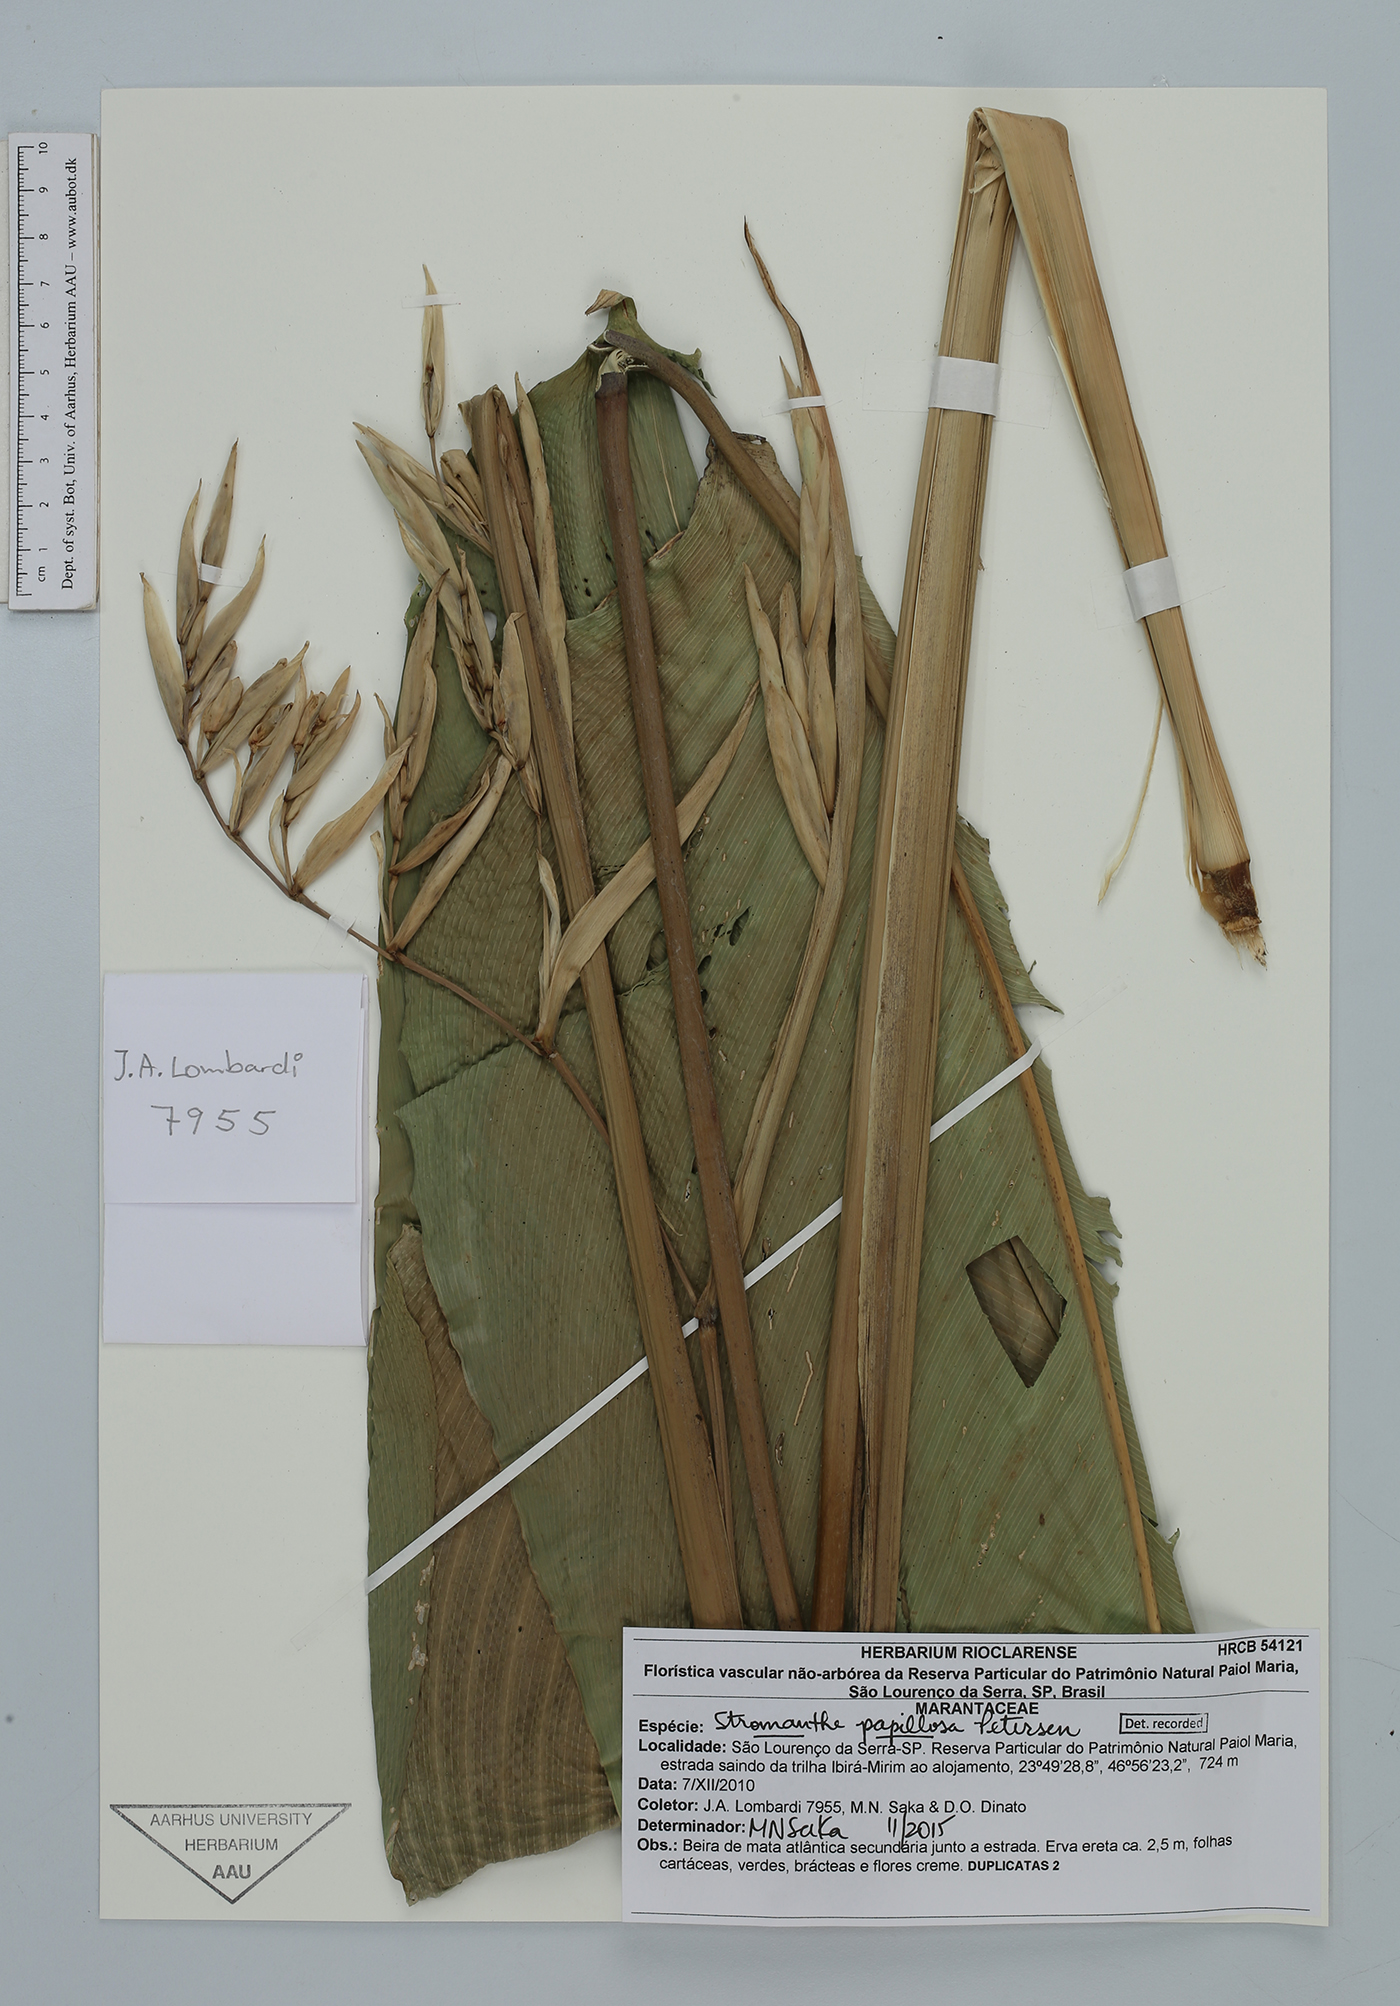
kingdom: Plantae
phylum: Tracheophyta
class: Liliopsida
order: Zingiberales
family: Marantaceae
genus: Stromanthe
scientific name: Stromanthe papillosa
